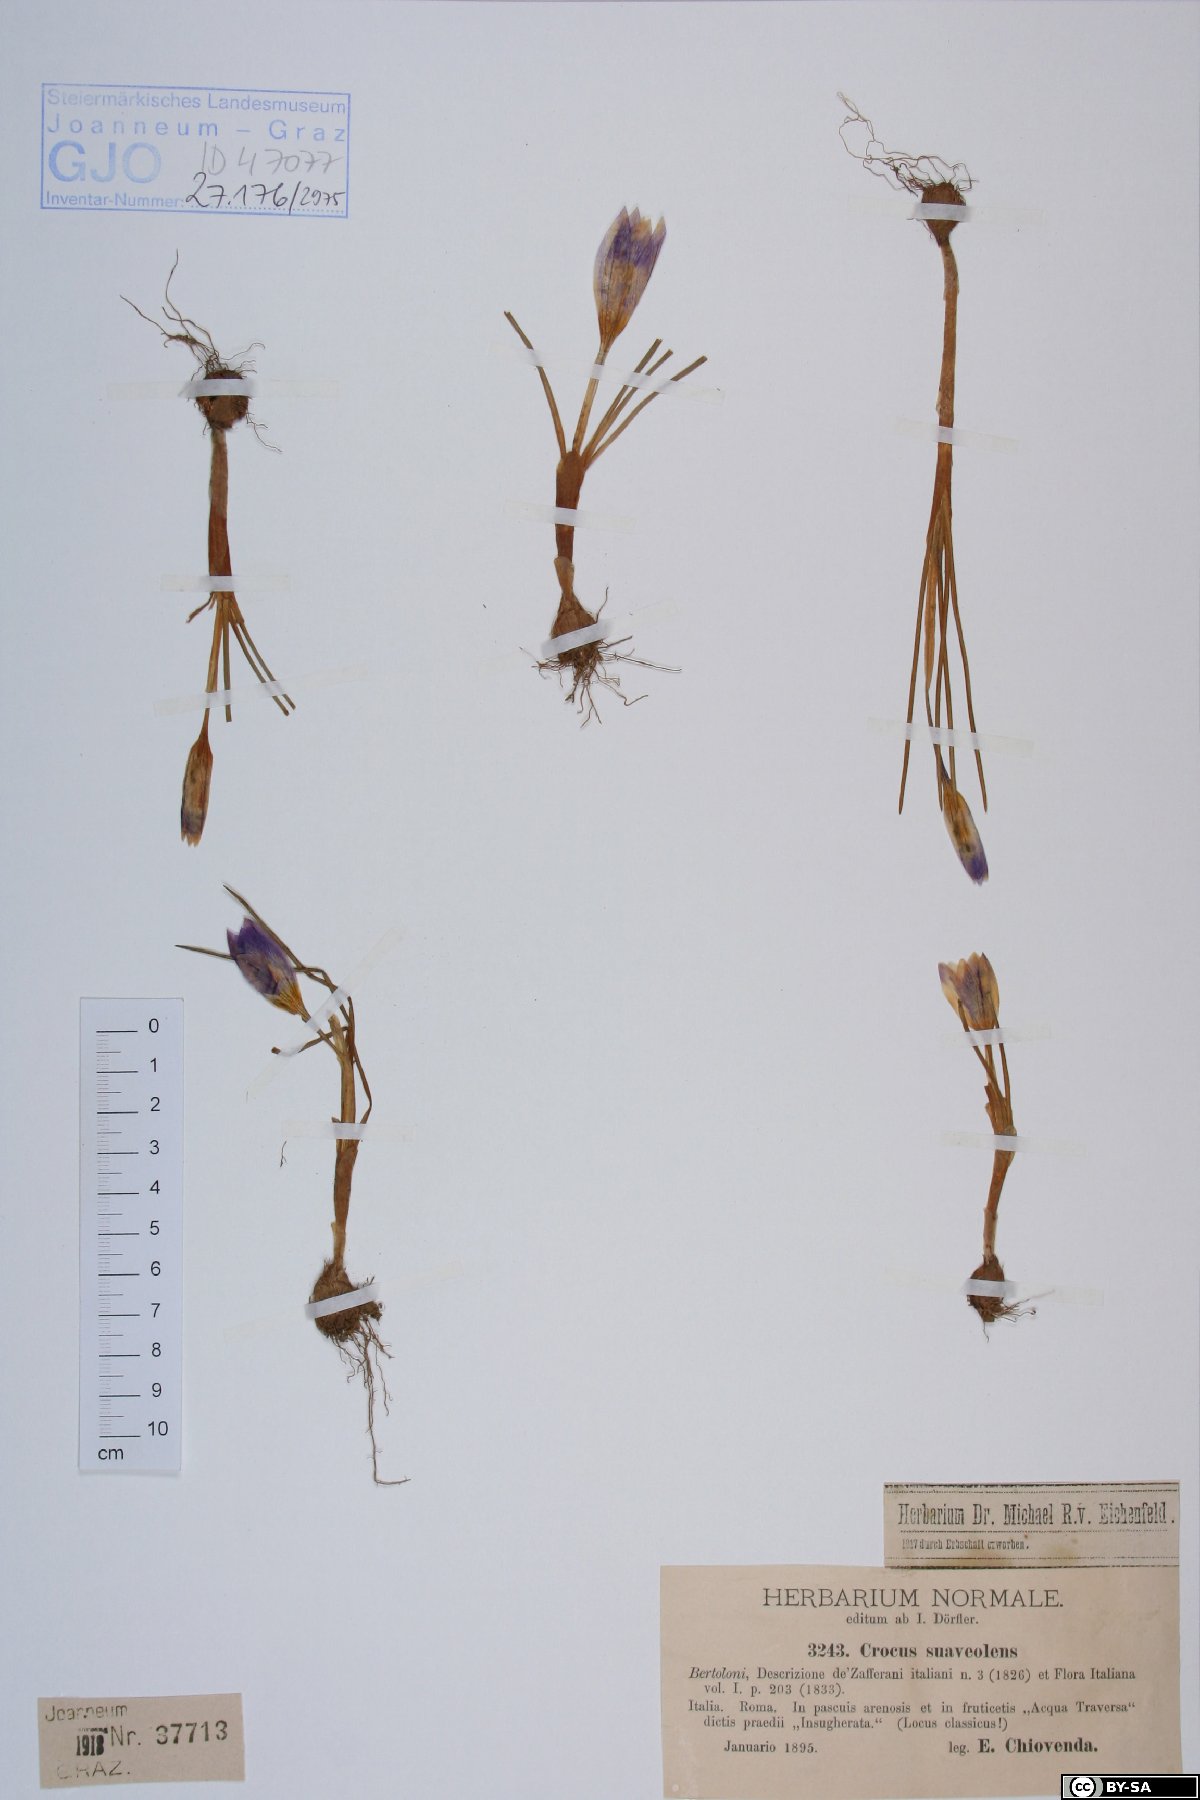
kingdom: Plantae
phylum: Tracheophyta
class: Liliopsida
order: Asparagales
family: Iridaceae
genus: Crocus
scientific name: Crocus suaveolens
